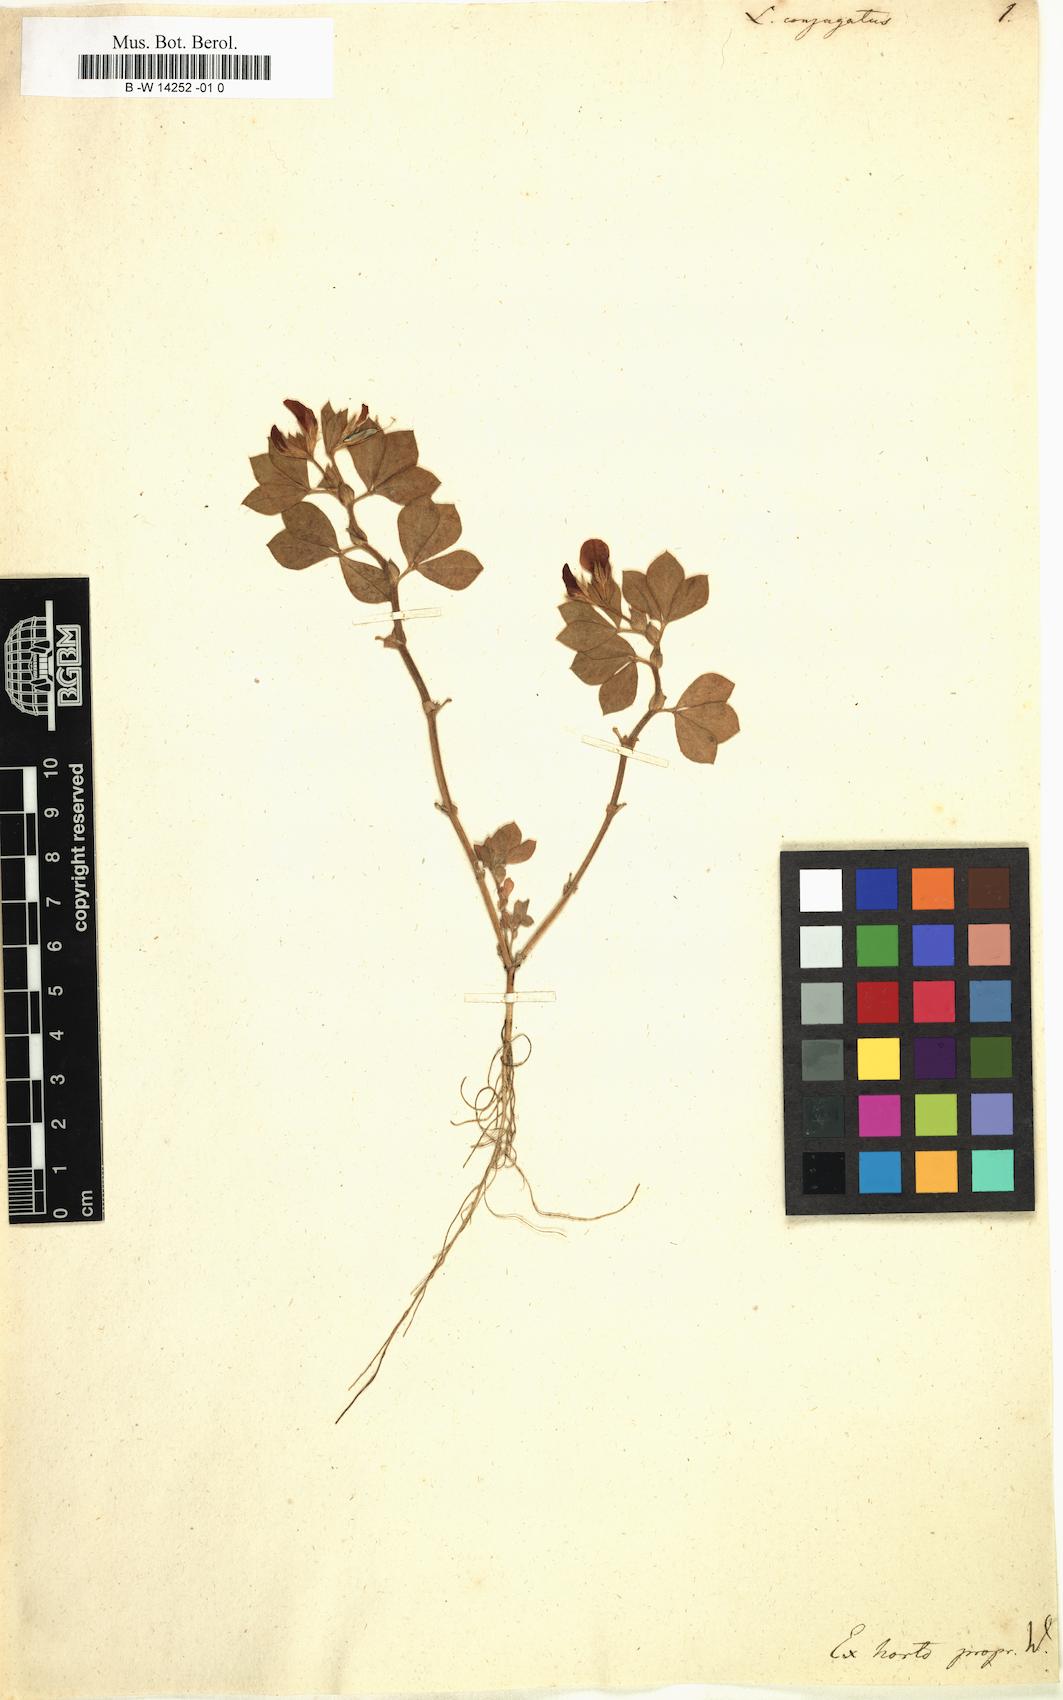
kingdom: Plantae
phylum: Tracheophyta
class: Magnoliopsida
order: Fabales
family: Fabaceae
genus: Lotus
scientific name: Lotus conjugatus
